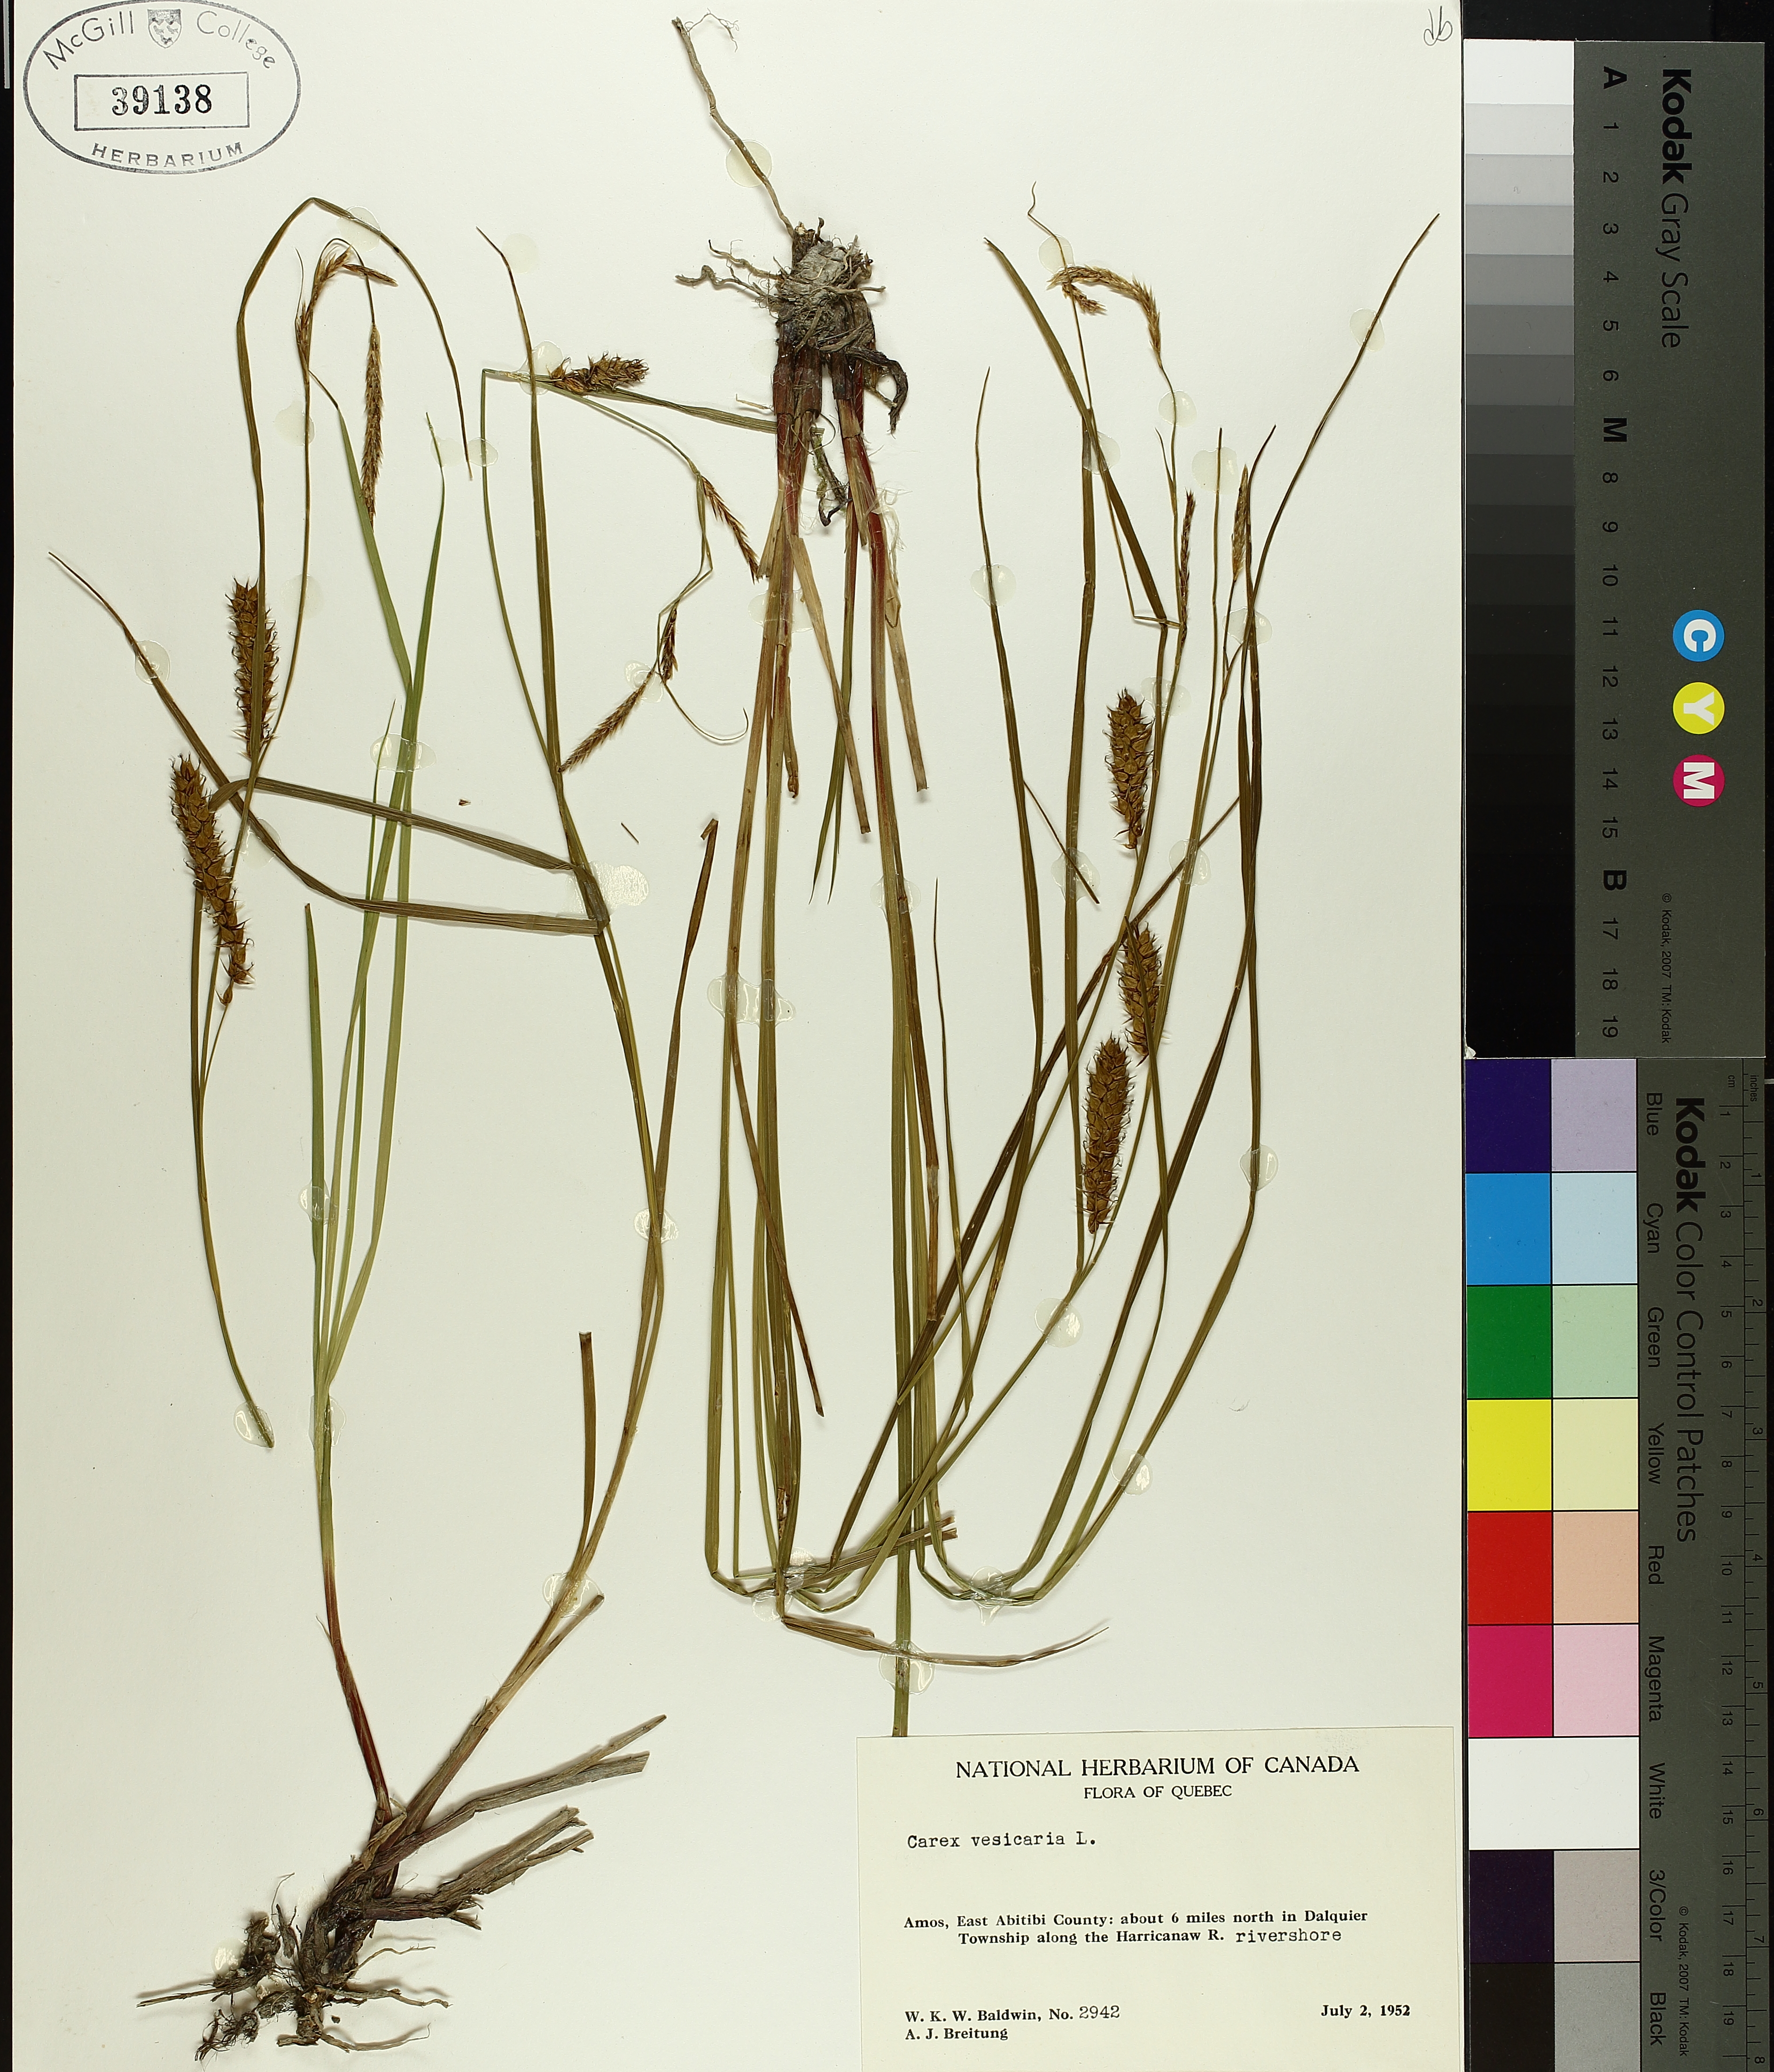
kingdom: Plantae
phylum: Tracheophyta
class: Liliopsida
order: Poales
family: Cyperaceae
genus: Carex
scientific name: Carex vesicaria
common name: Bladder-sedge
